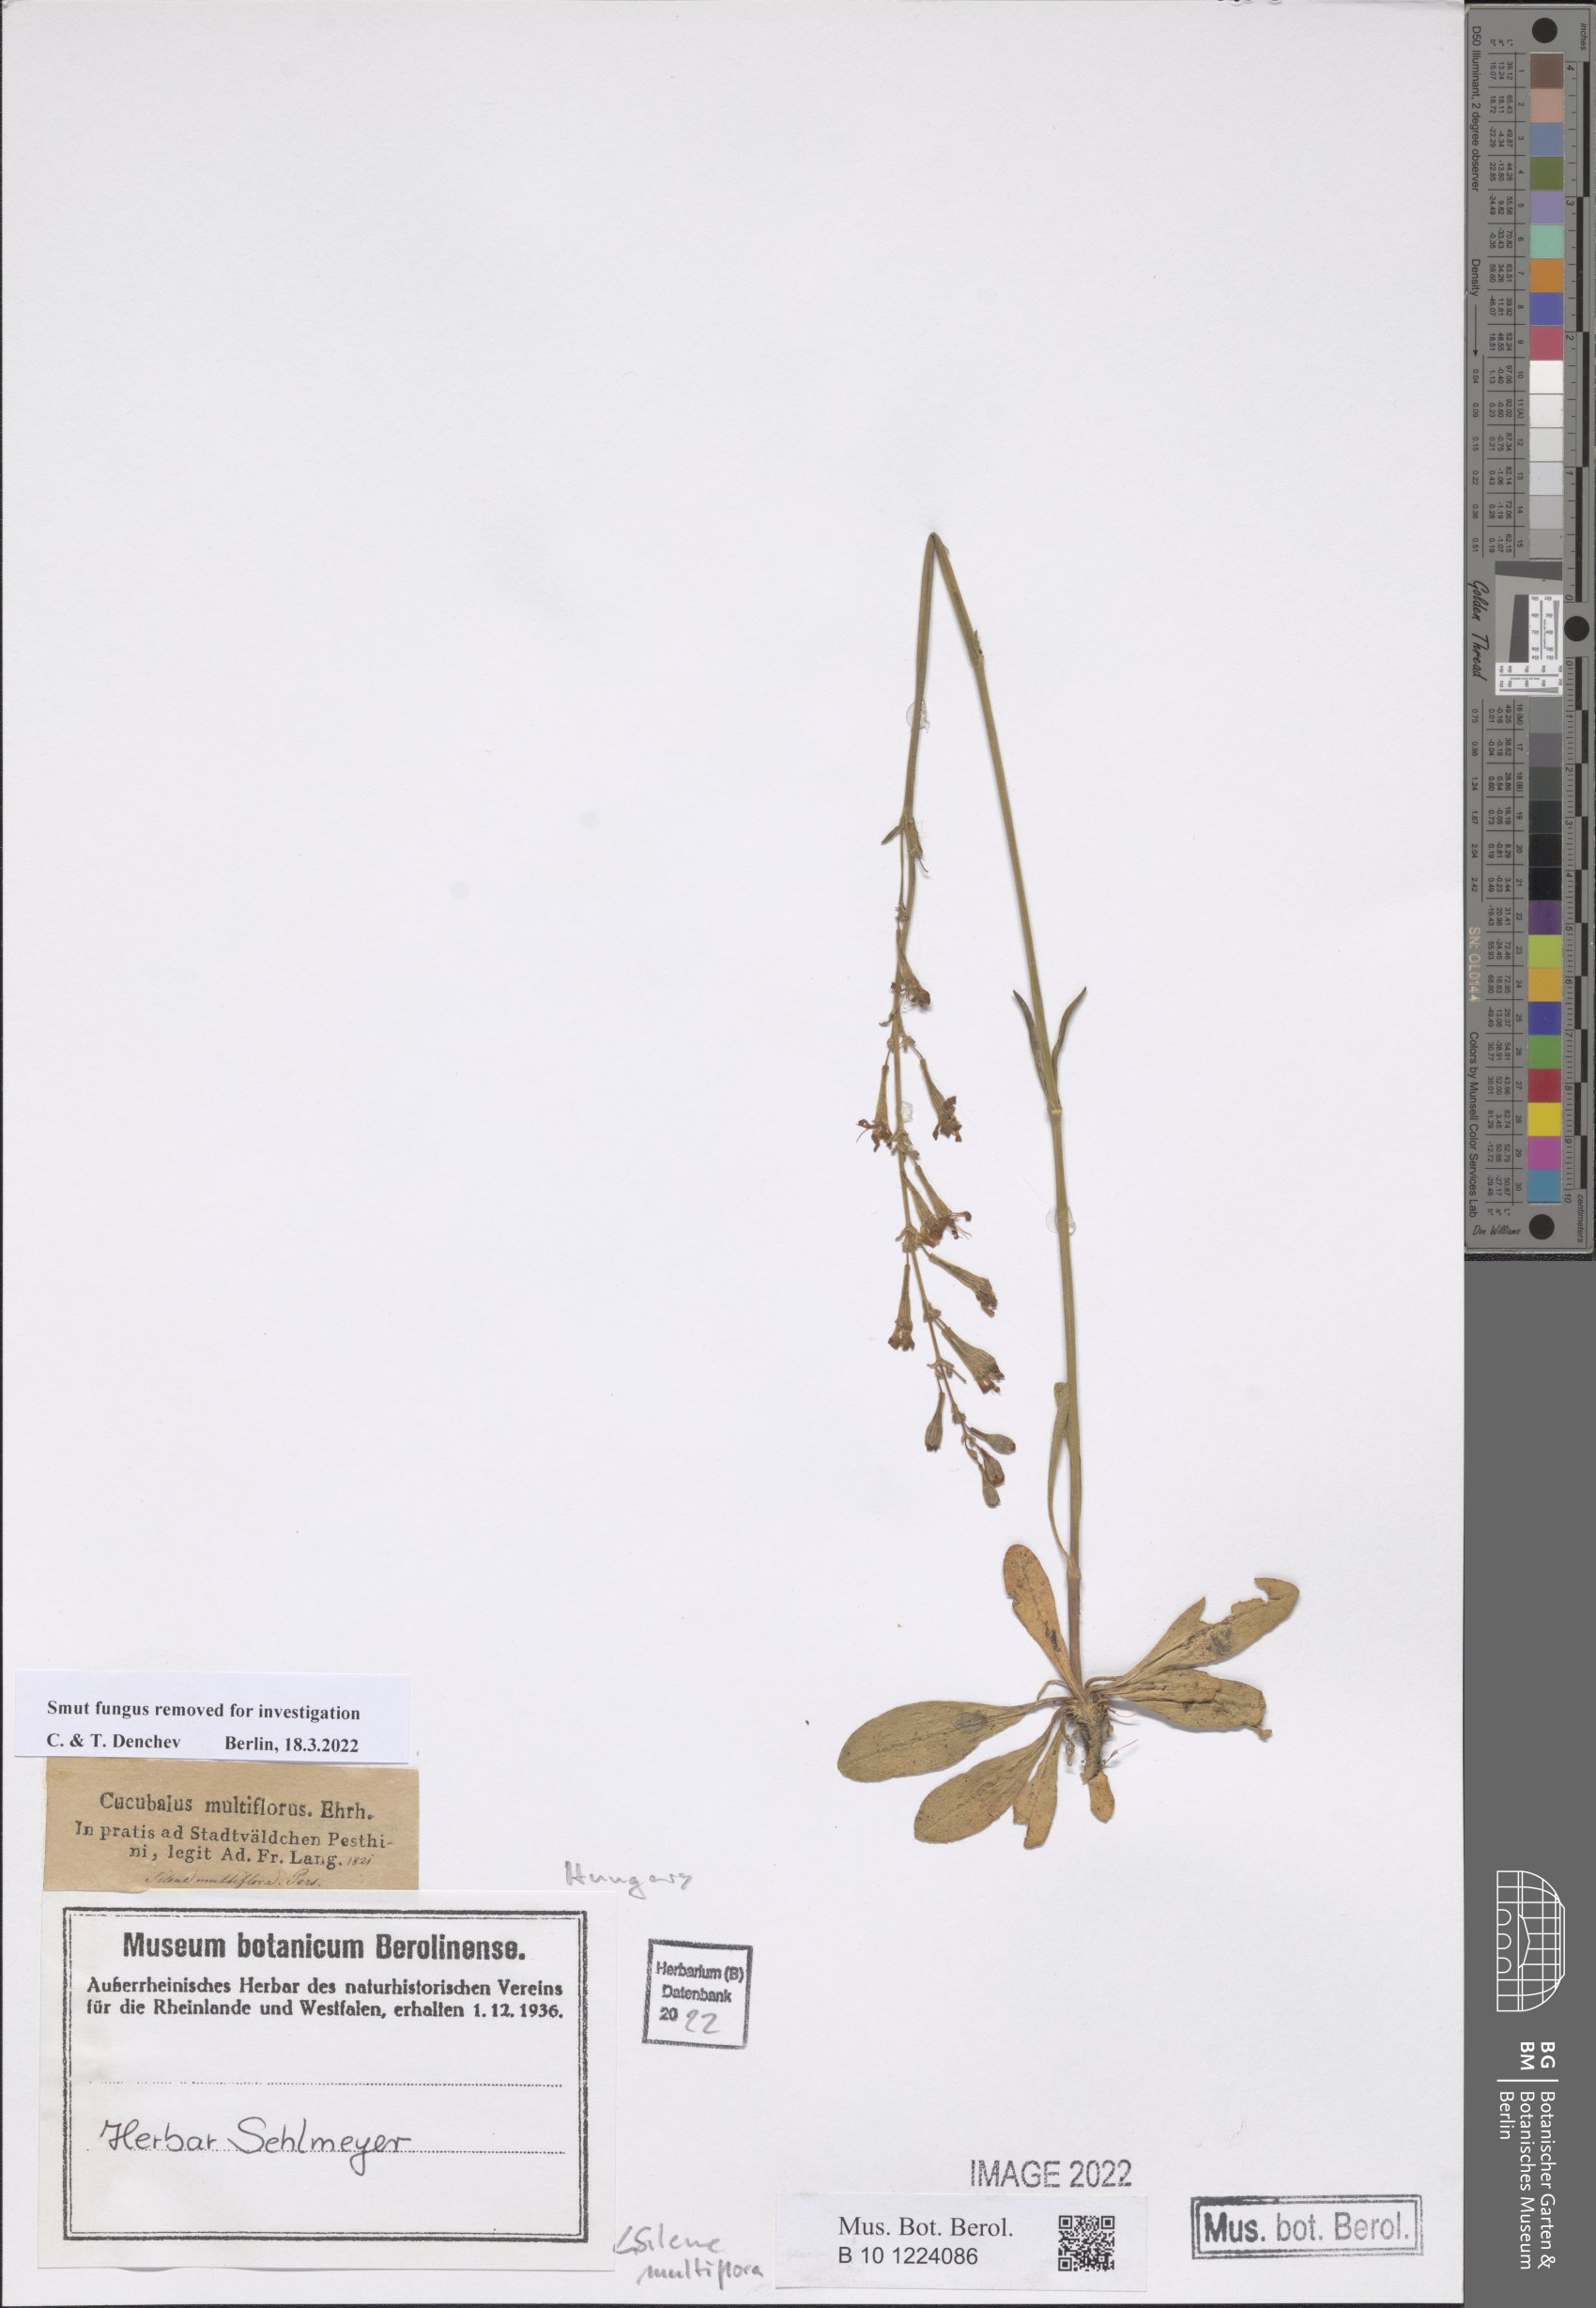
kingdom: Plantae
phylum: Tracheophyta
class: Magnoliopsida
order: Caryophyllales
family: Caryophyllaceae
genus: Silene
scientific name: Silene multiflora
